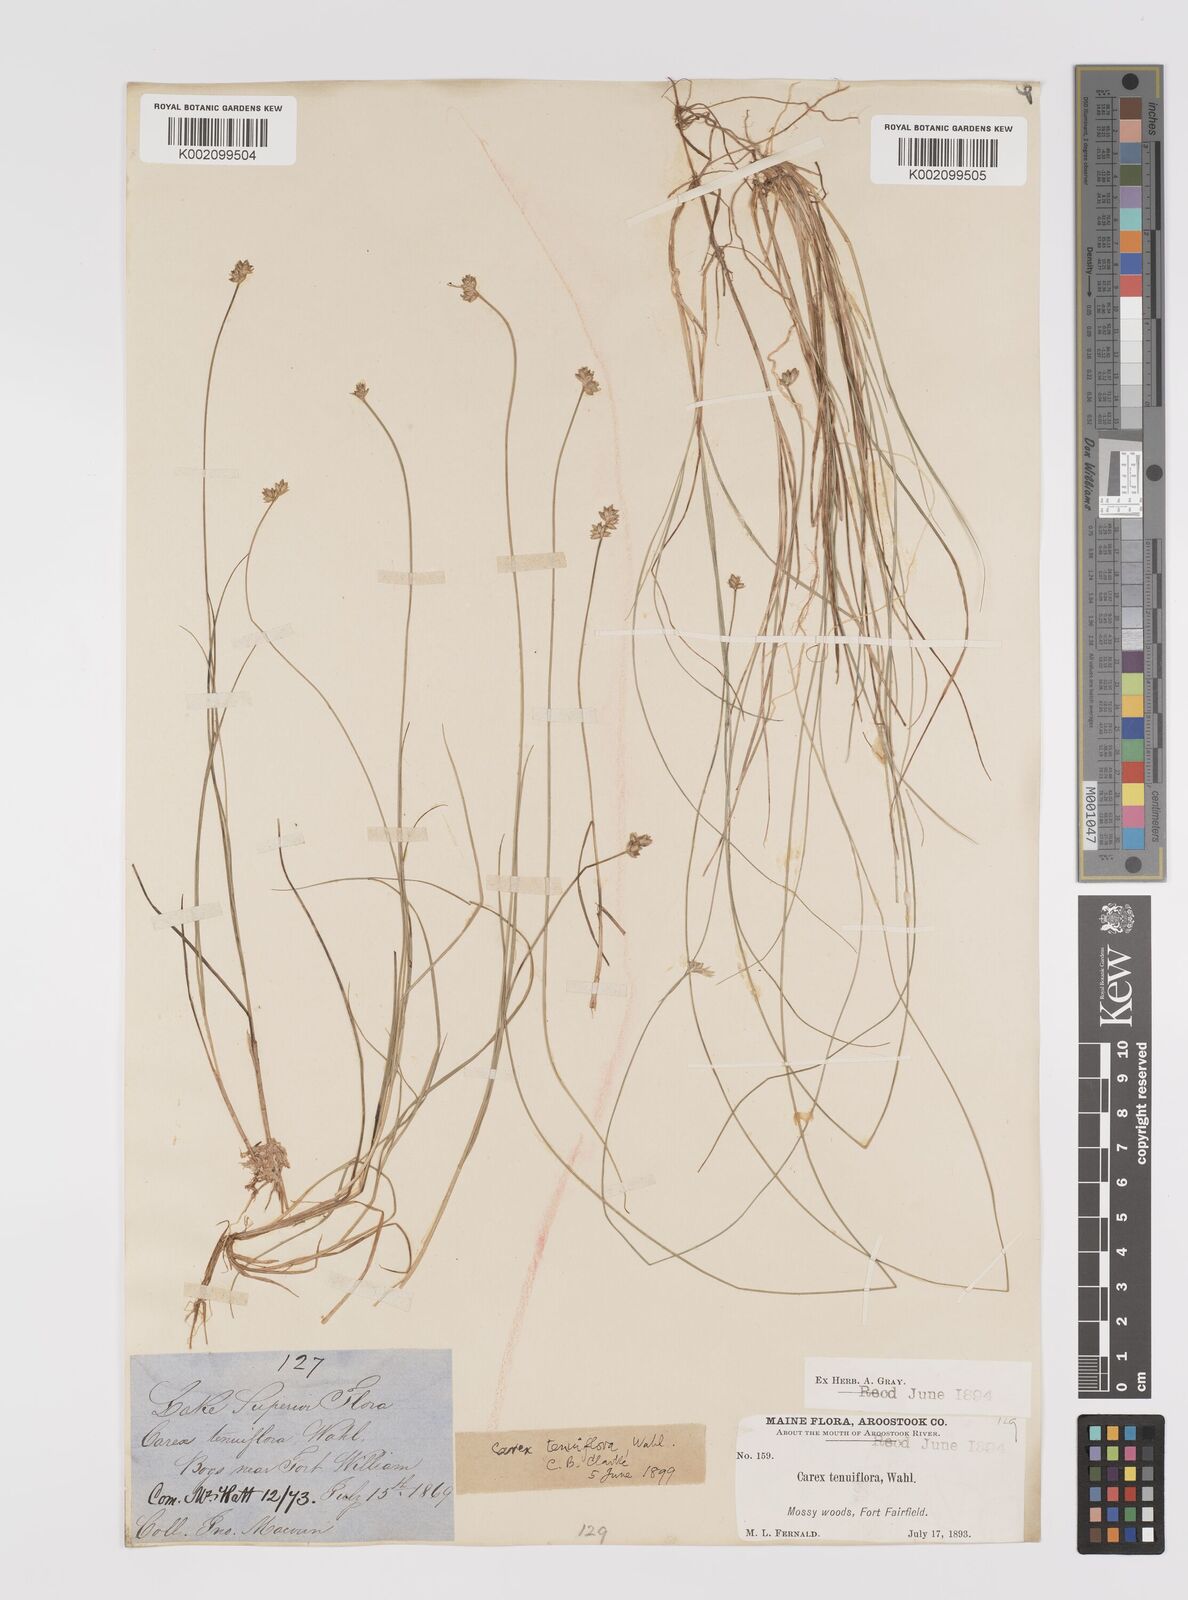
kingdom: Plantae
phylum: Tracheophyta
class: Liliopsida
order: Poales
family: Cyperaceae
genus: Carex
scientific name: Carex tenuiflora
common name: Sparse-flowered sedge
